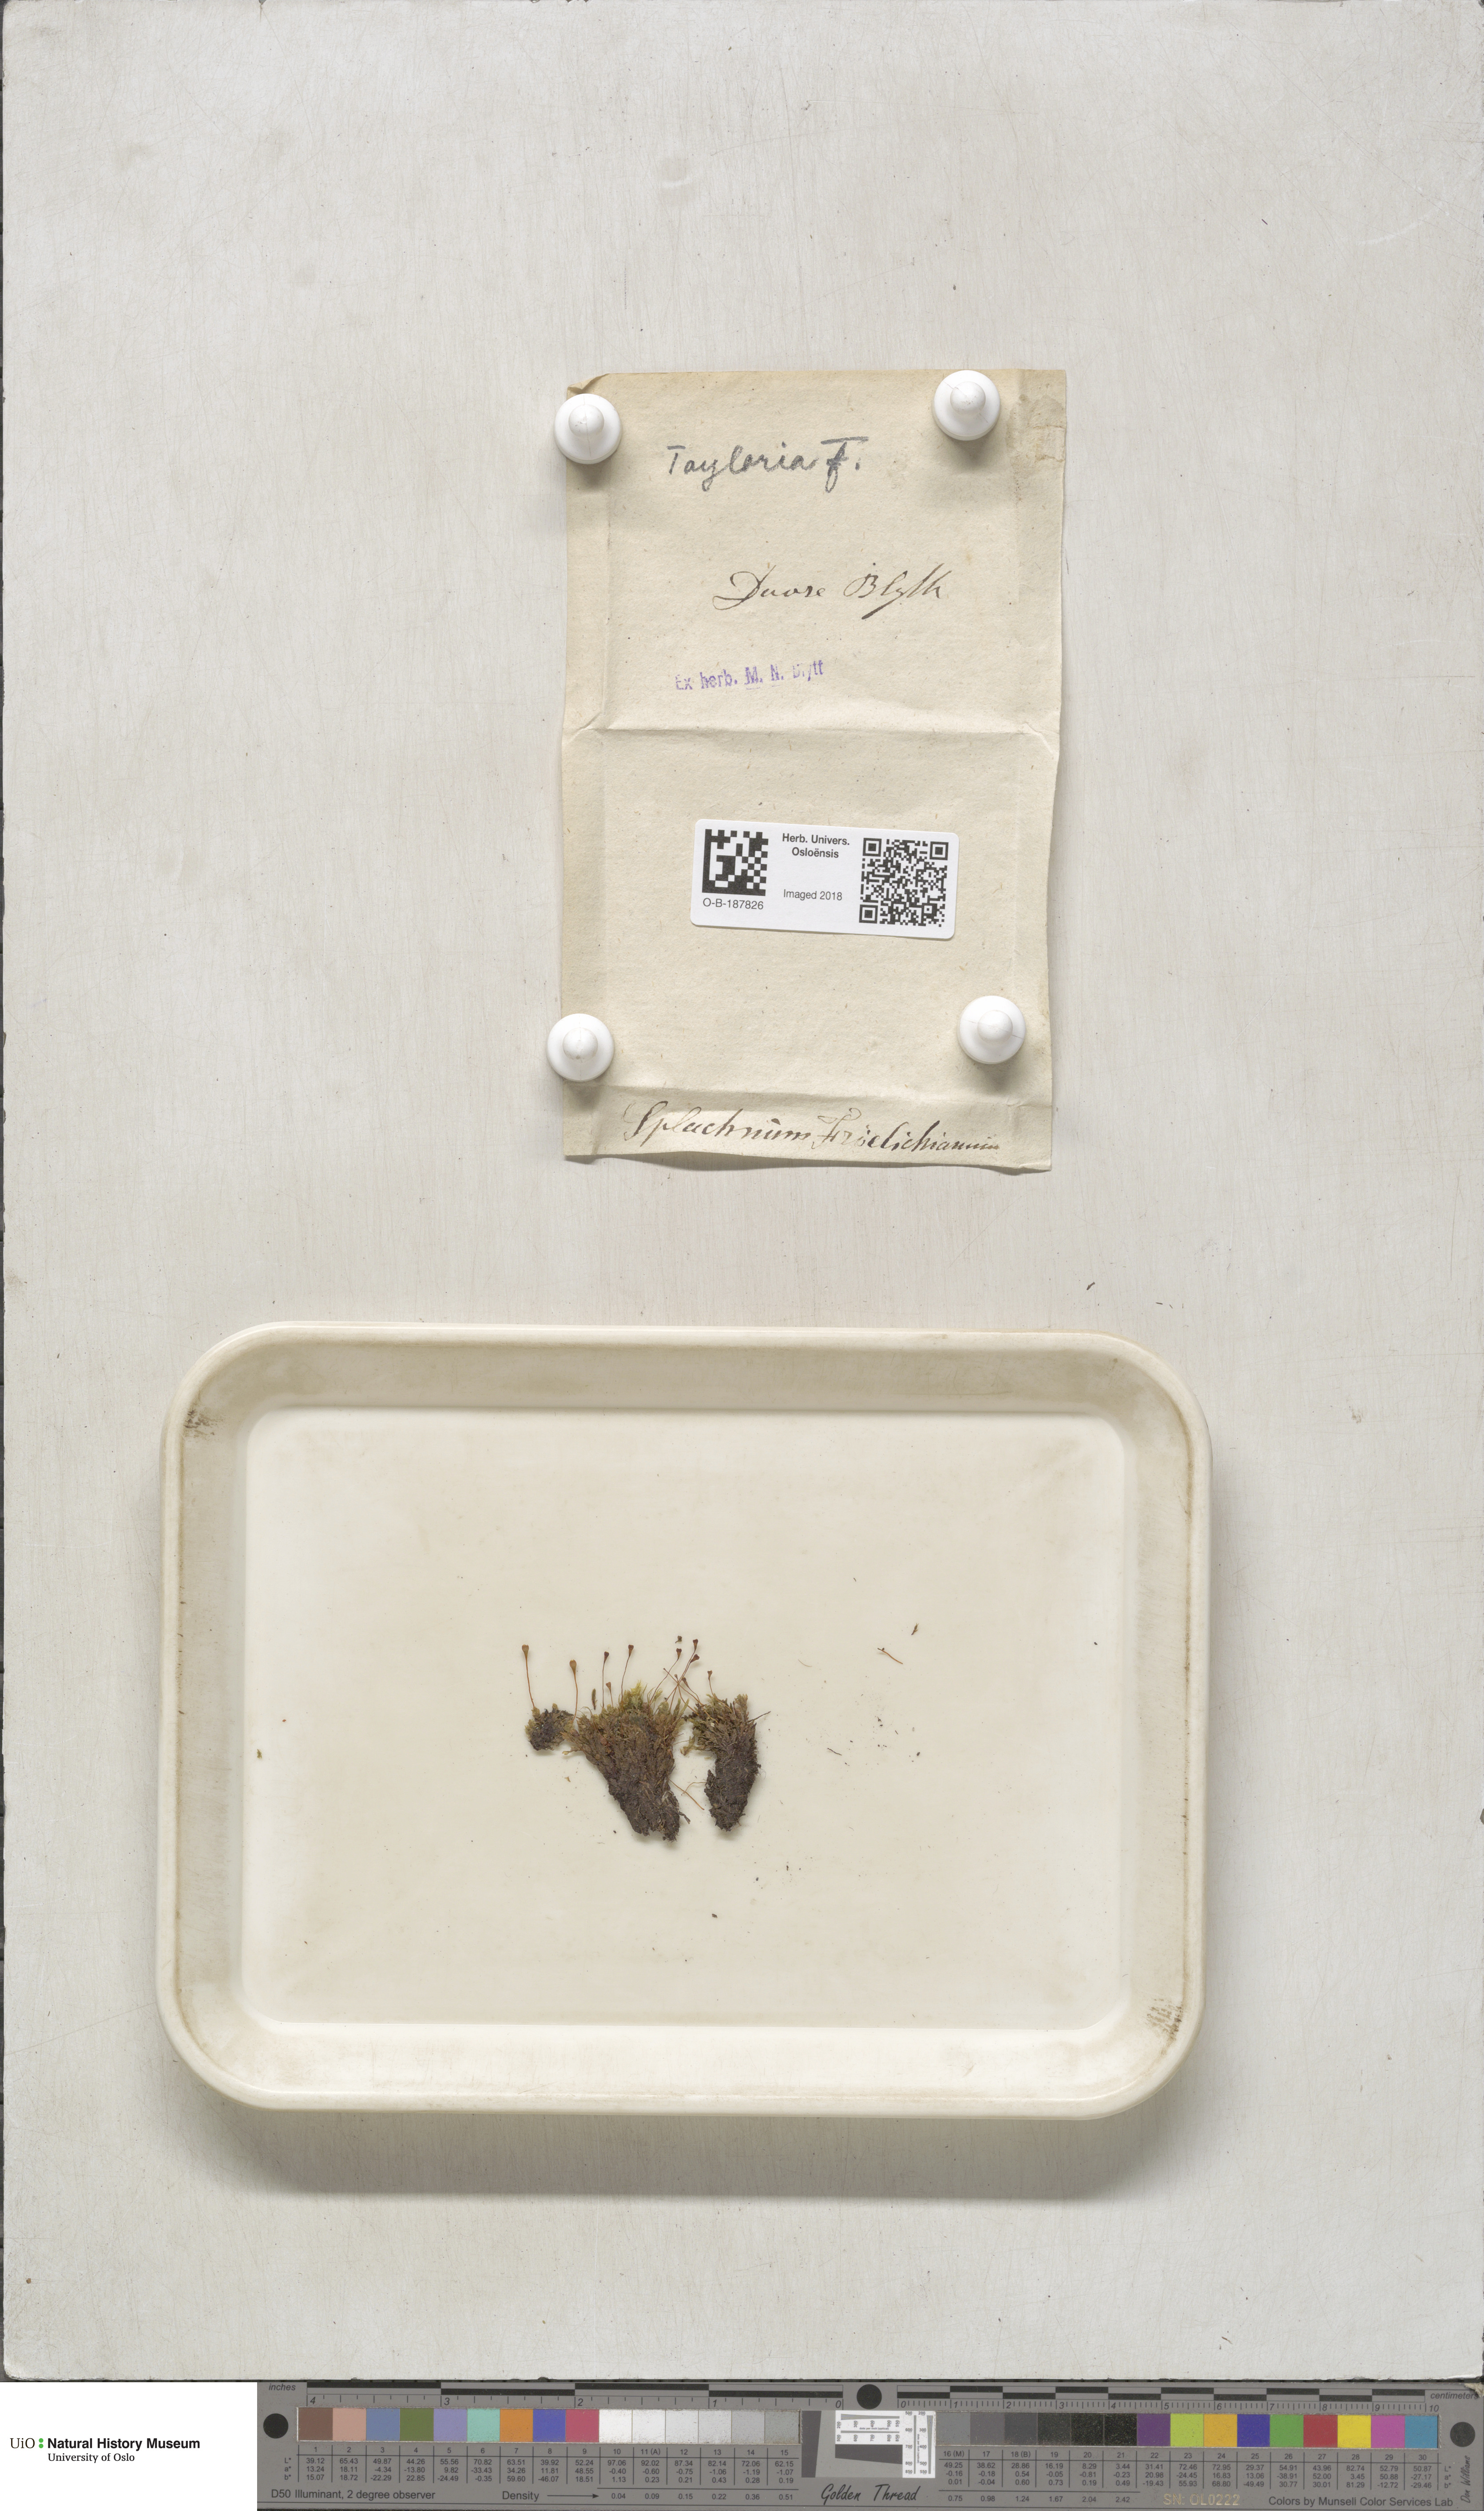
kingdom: Plantae
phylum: Bryophyta
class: Bryopsida
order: Splachnales
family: Splachnaceae
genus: Tayloria
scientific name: Tayloria froelichiana
